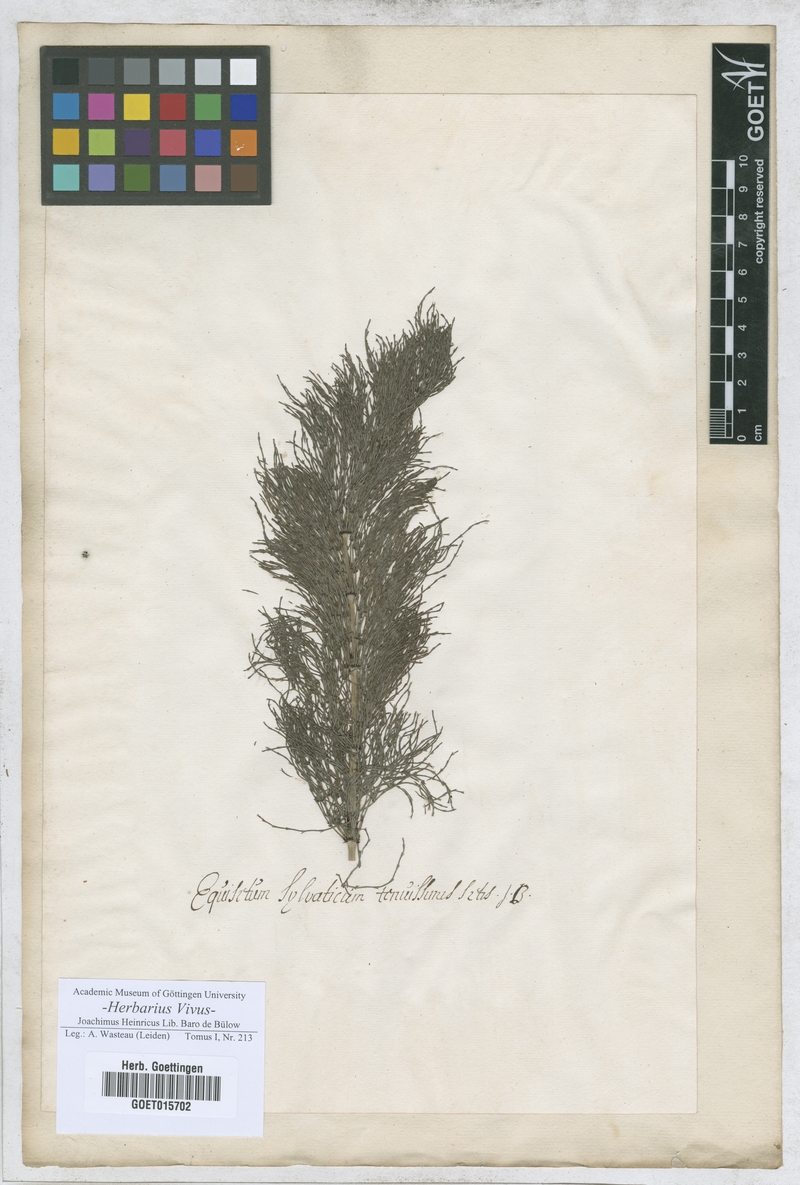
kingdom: Plantae
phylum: Tracheophyta
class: Polypodiopsida
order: Equisetales
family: Equisetaceae
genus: Equisetum
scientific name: Equisetum sylvaticum
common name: Wood horsetail
